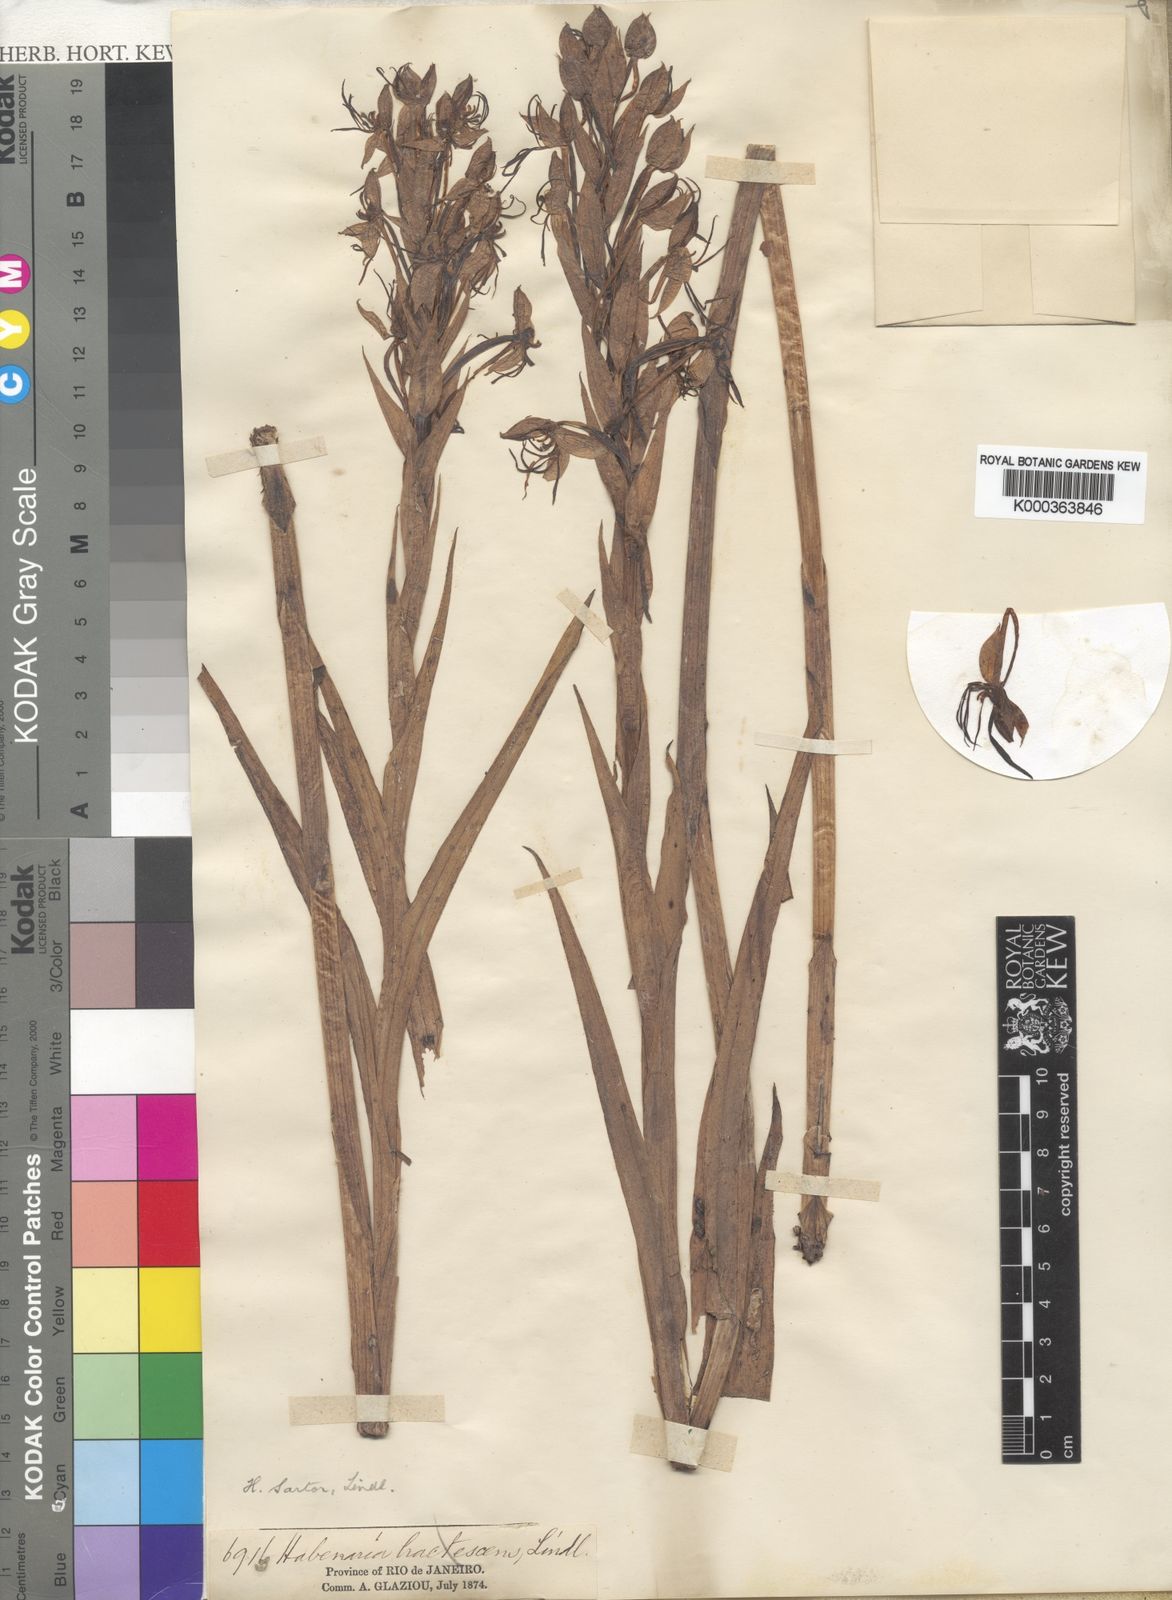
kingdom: Plantae
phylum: Tracheophyta
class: Liliopsida
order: Asparagales
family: Orchidaceae
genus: Habenaria
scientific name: Habenaria sartor
